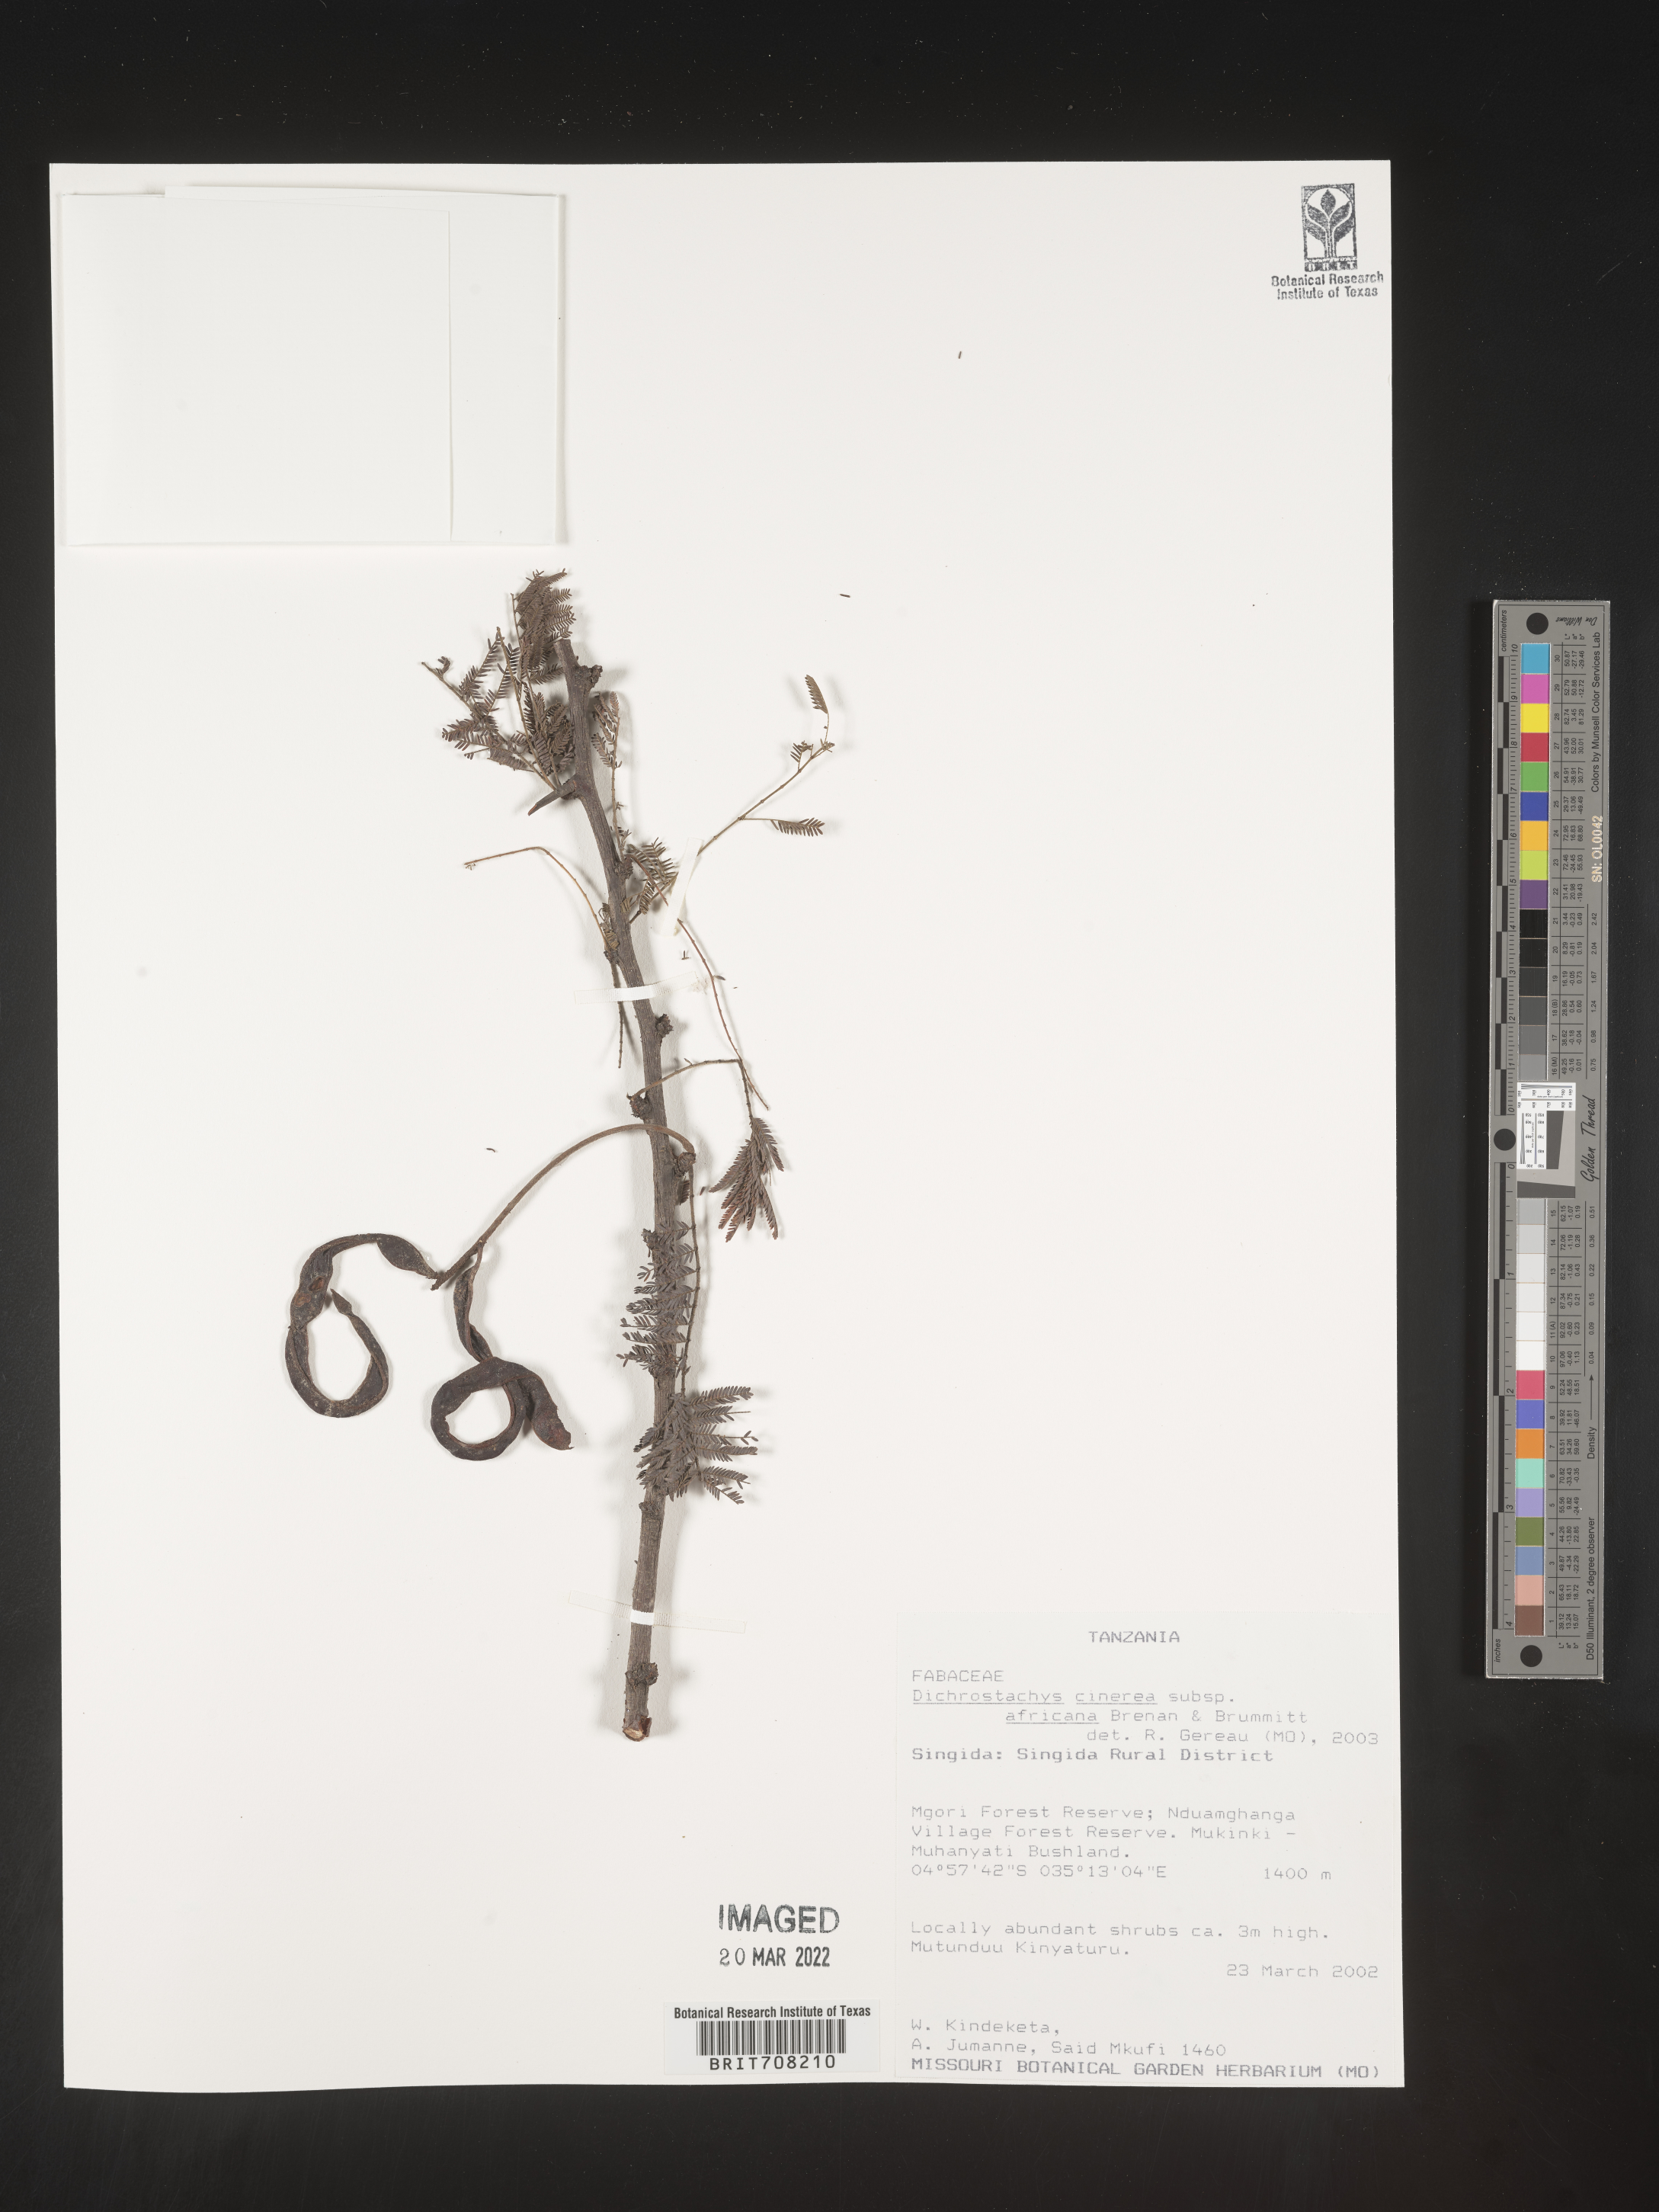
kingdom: Plantae
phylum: Tracheophyta
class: Magnoliopsida
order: Fabales
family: Fabaceae
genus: Dichrostachys
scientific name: Dichrostachys
